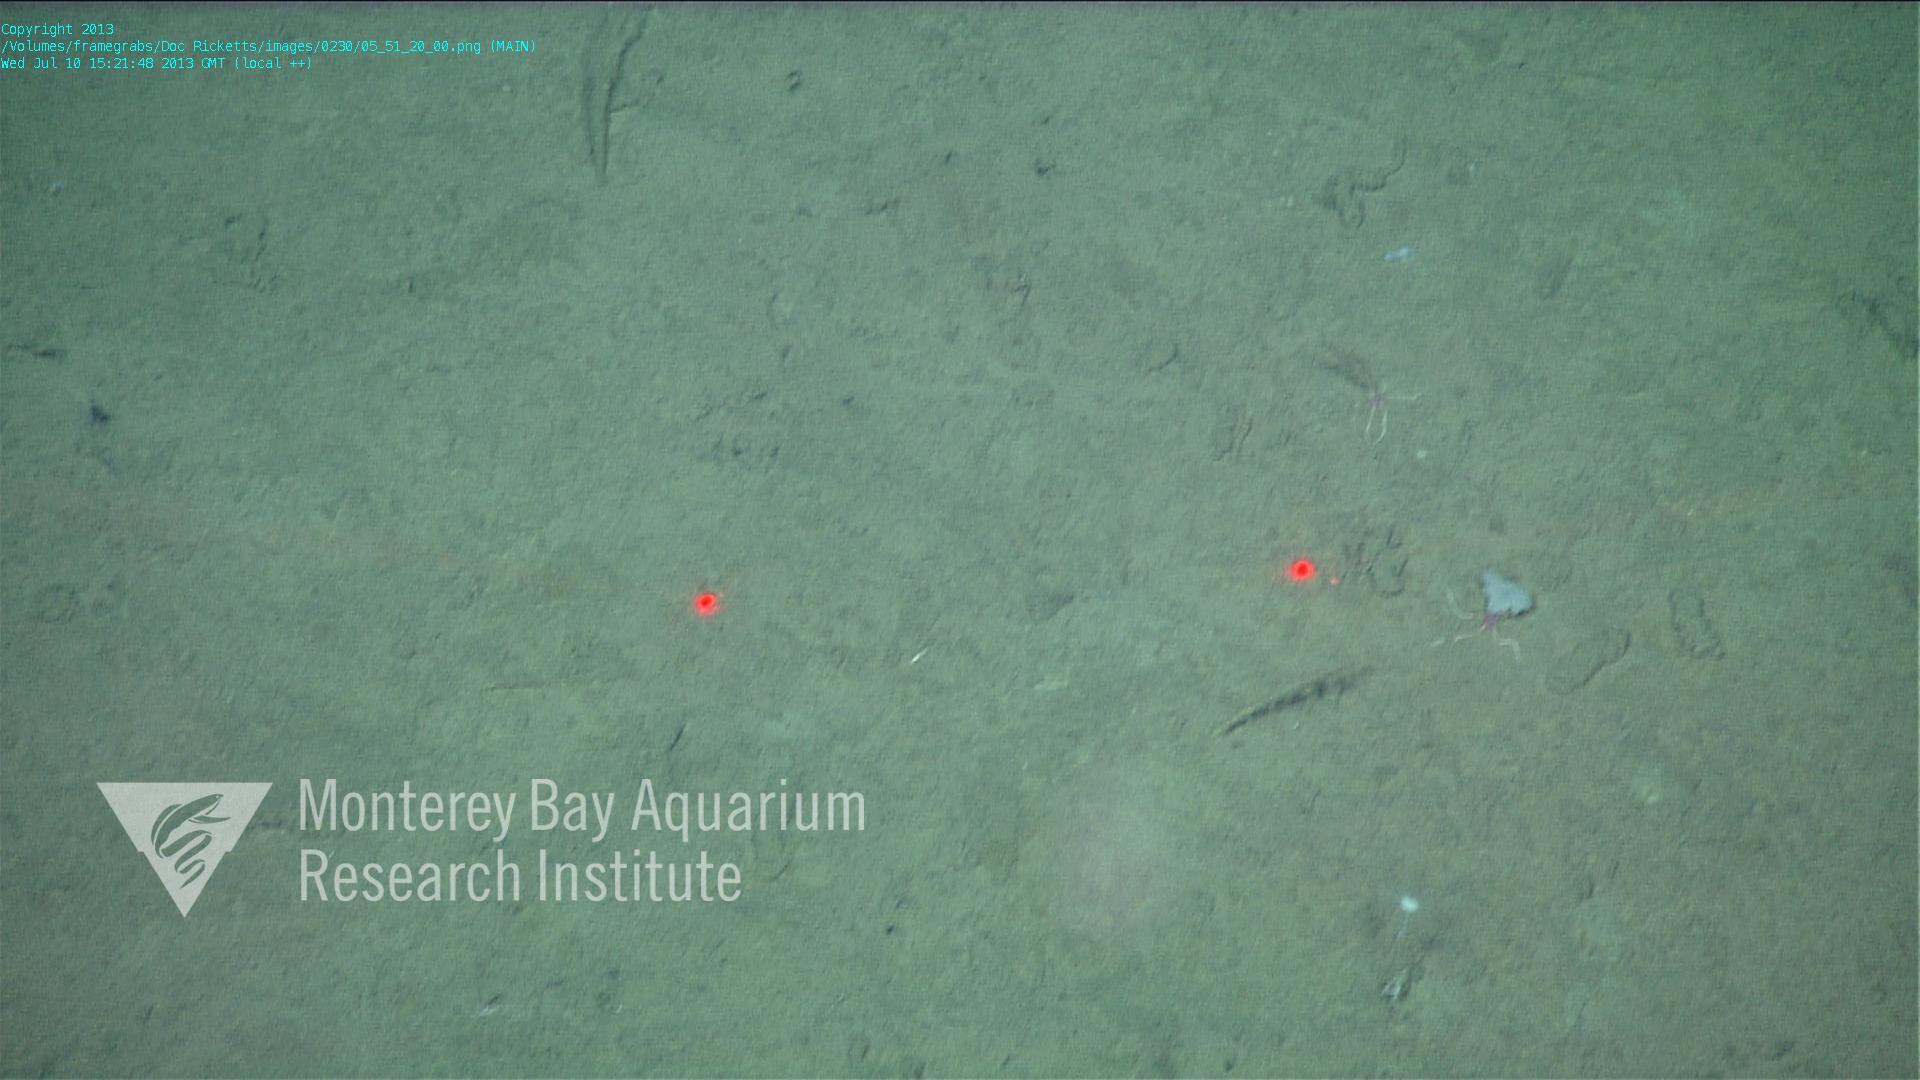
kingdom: Animalia
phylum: Porifera
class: Hexactinellida
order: Lyssacinosida
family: Euplectellidae
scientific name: Euplectellidae
